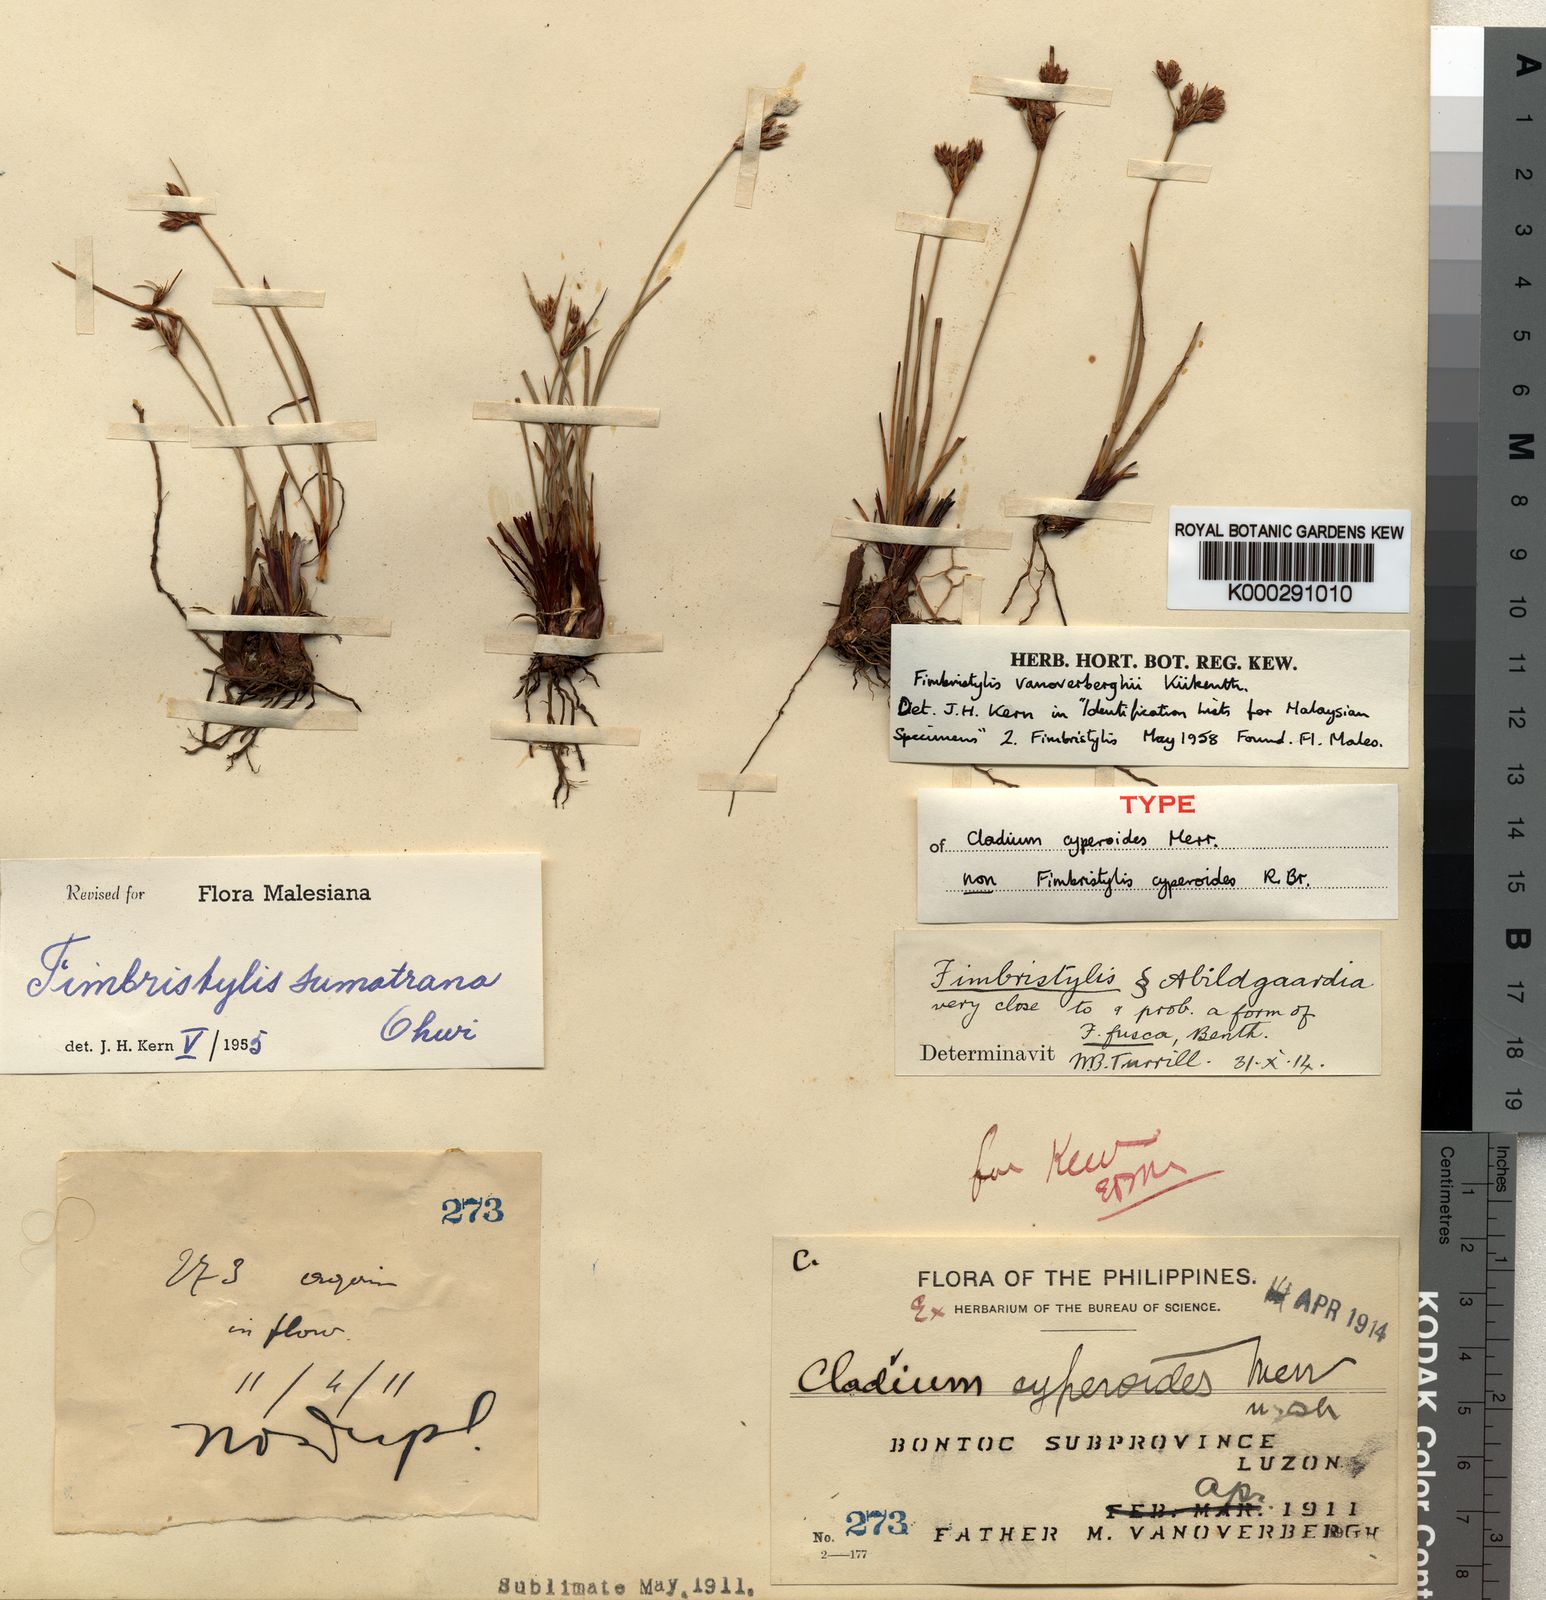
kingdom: Plantae
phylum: Tracheophyta
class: Liliopsida
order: Poales
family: Cyperaceae
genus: Fimbristylis
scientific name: Fimbristylis
